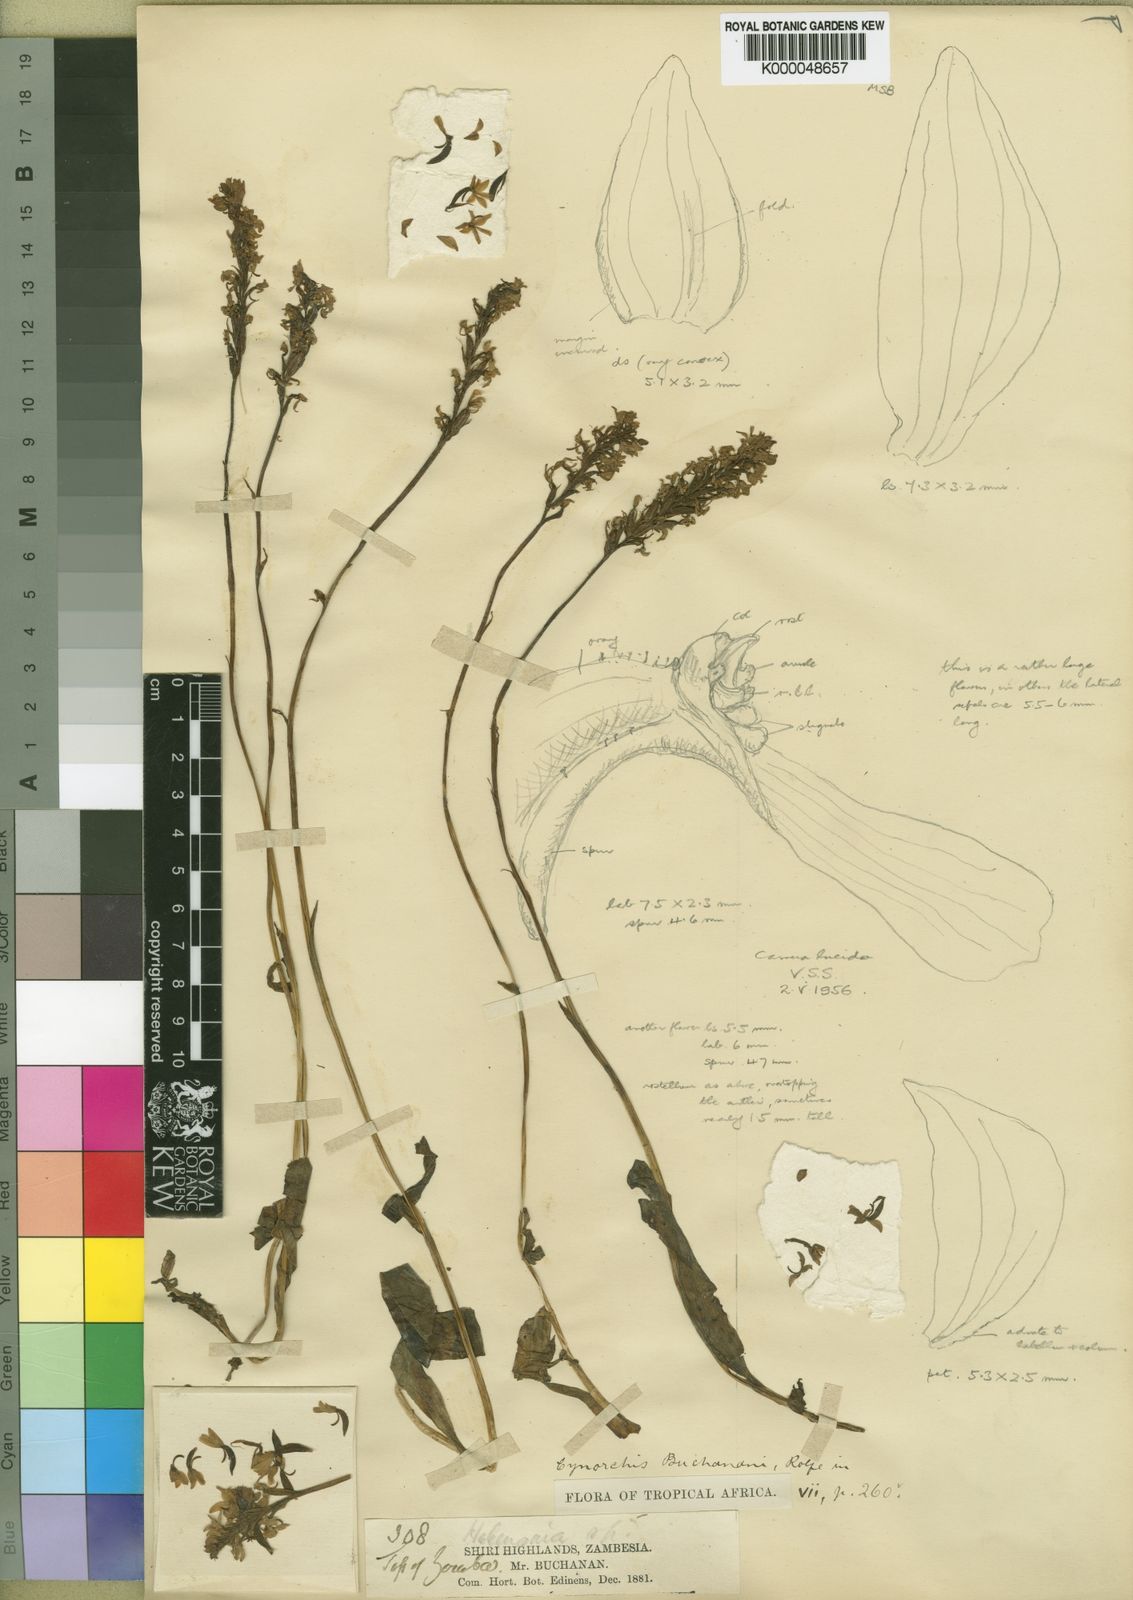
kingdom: Plantae
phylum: Tracheophyta
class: Liliopsida
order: Asparagales
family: Orchidaceae
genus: Cynorkis
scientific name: Cynorkis buchananii
